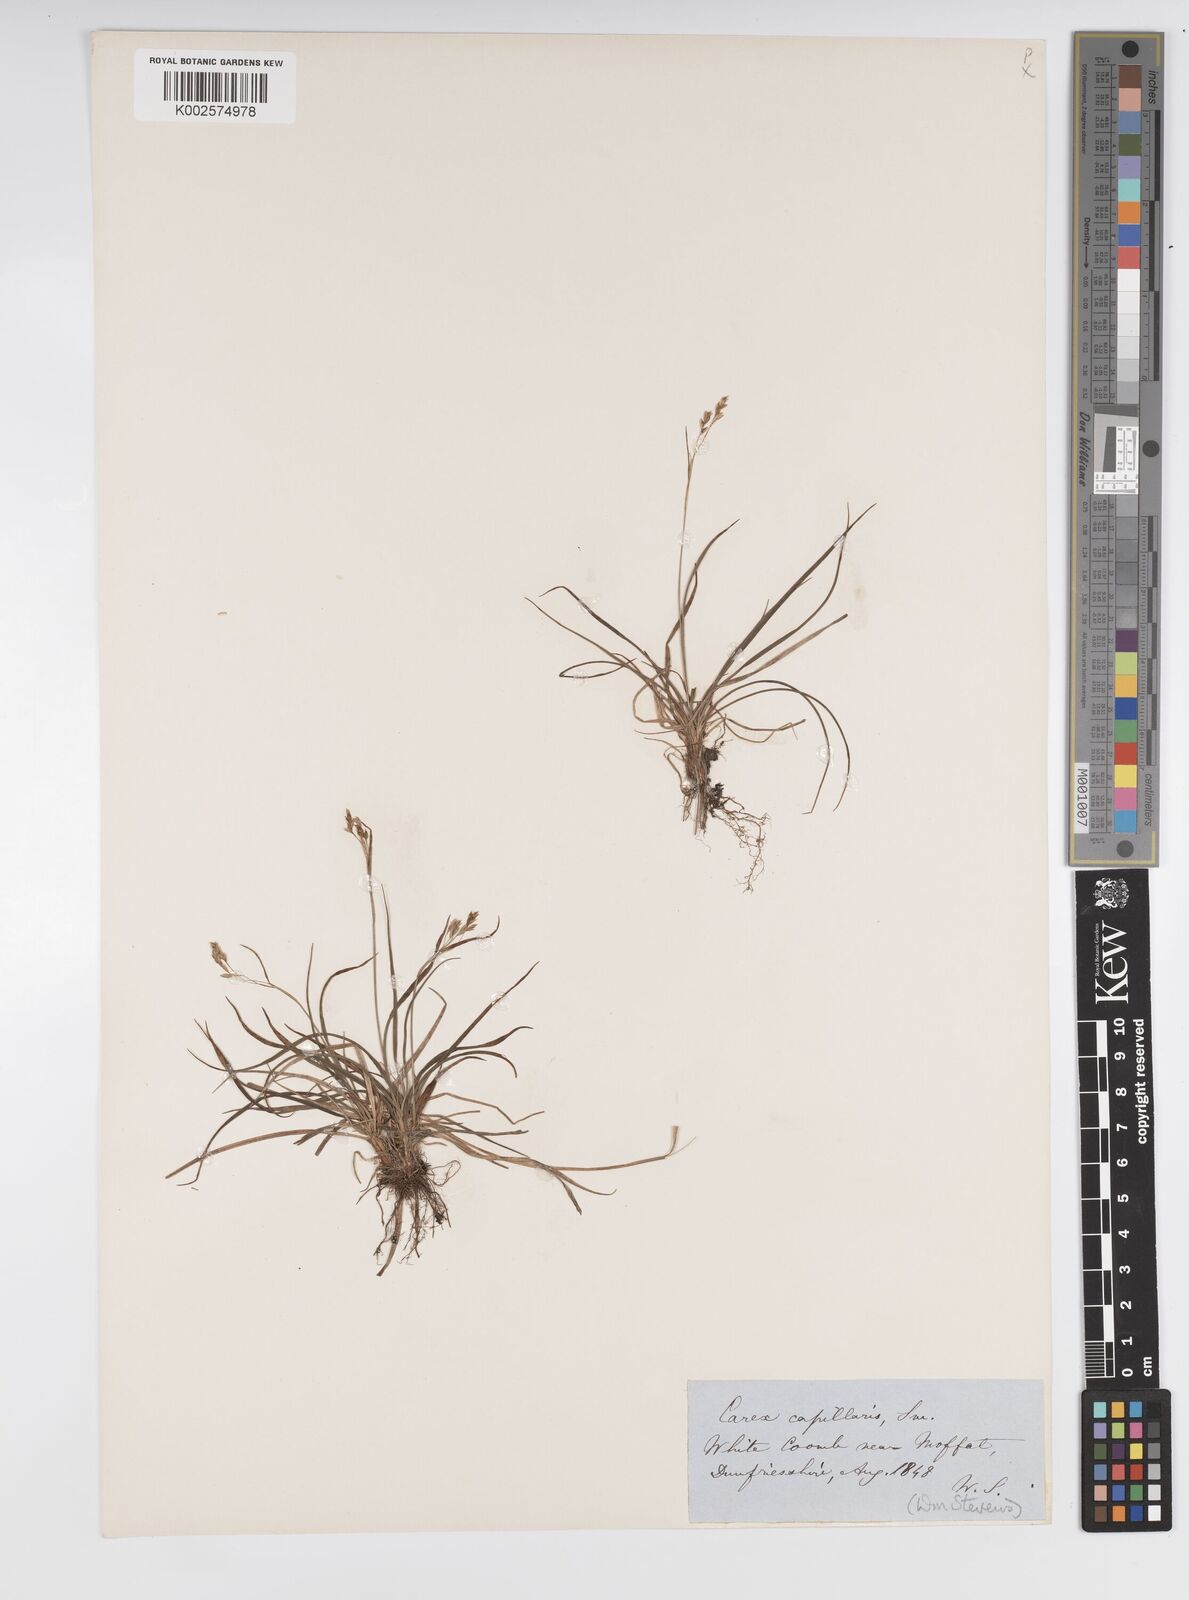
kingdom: Plantae
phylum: Tracheophyta
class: Liliopsida
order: Poales
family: Cyperaceae
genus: Carex
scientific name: Carex capillaris
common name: Hair sedge
